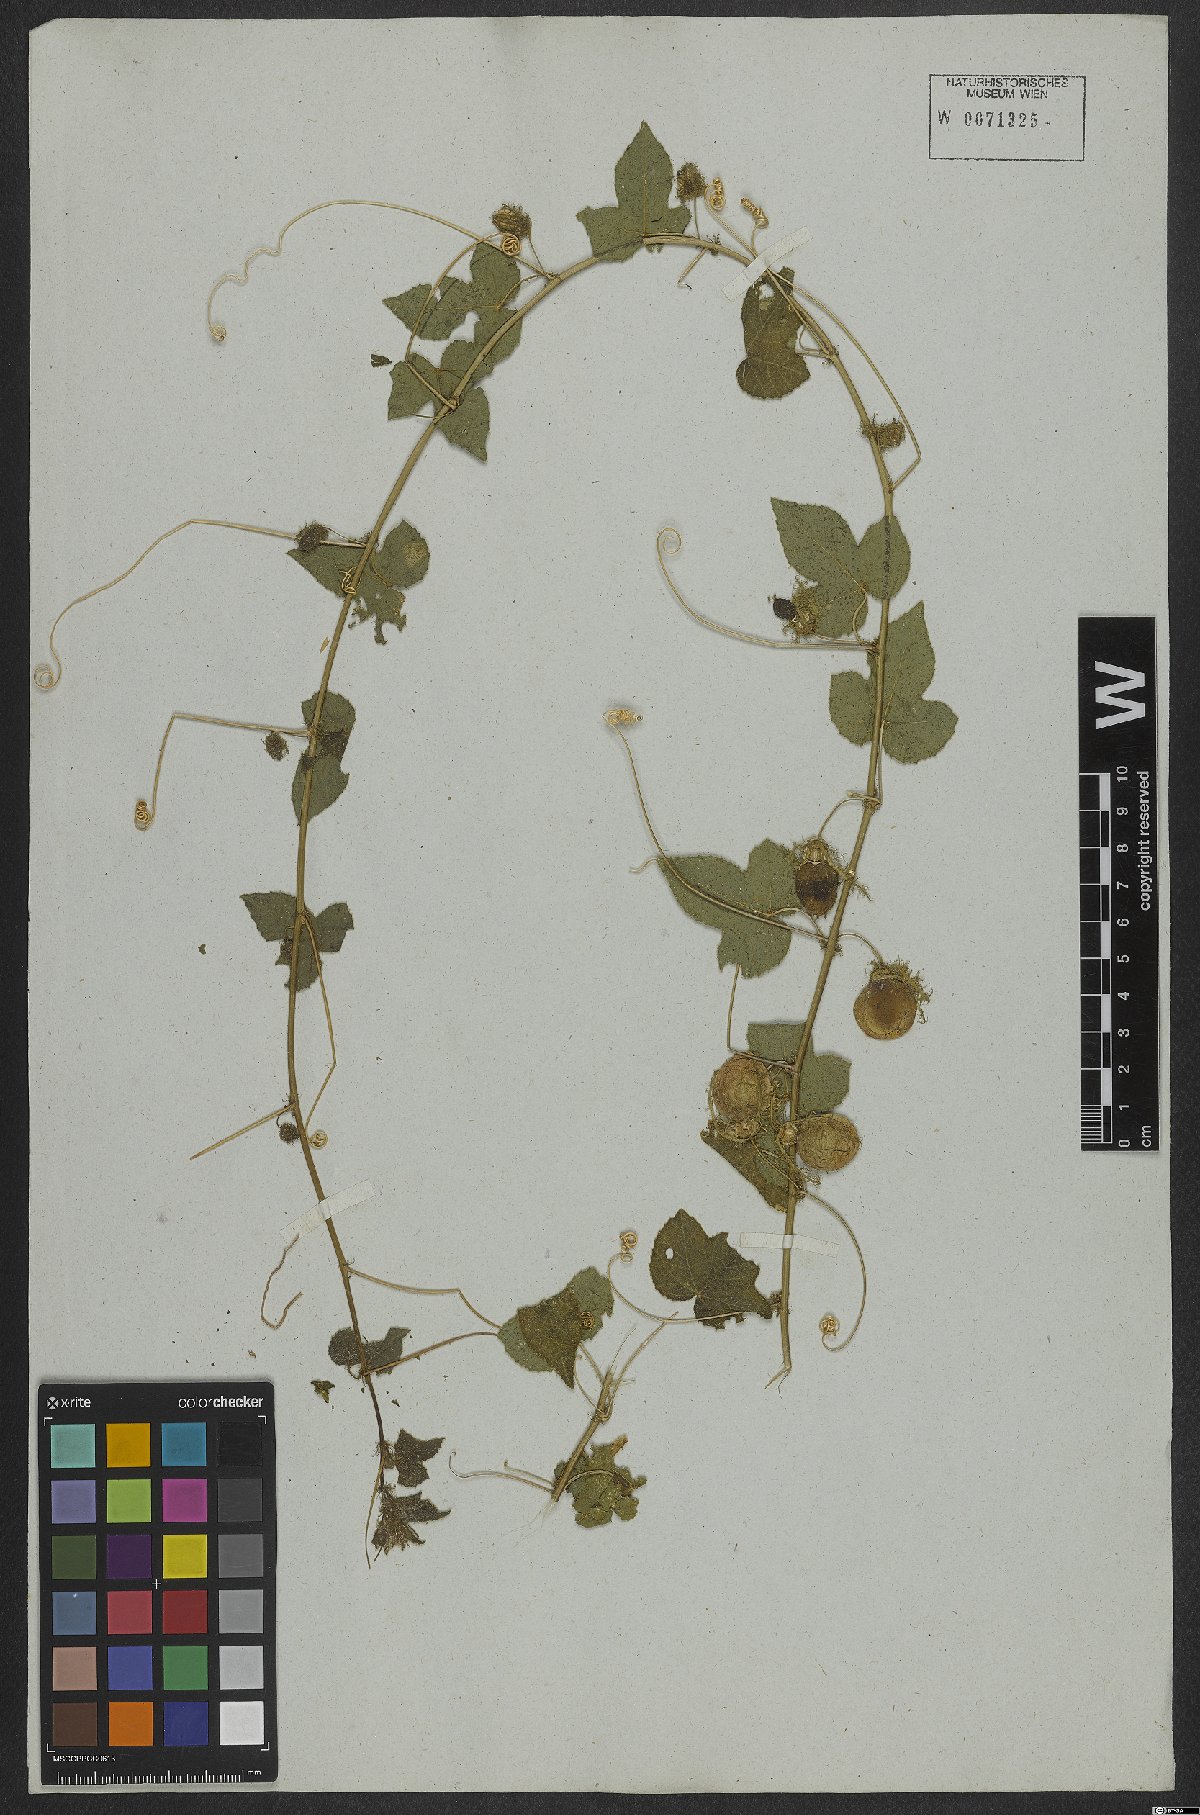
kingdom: Plantae
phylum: Tracheophyta
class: Magnoliopsida
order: Malpighiales
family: Passifloraceae
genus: Passiflora
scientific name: Passiflora foetida
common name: Fetid passionflower
